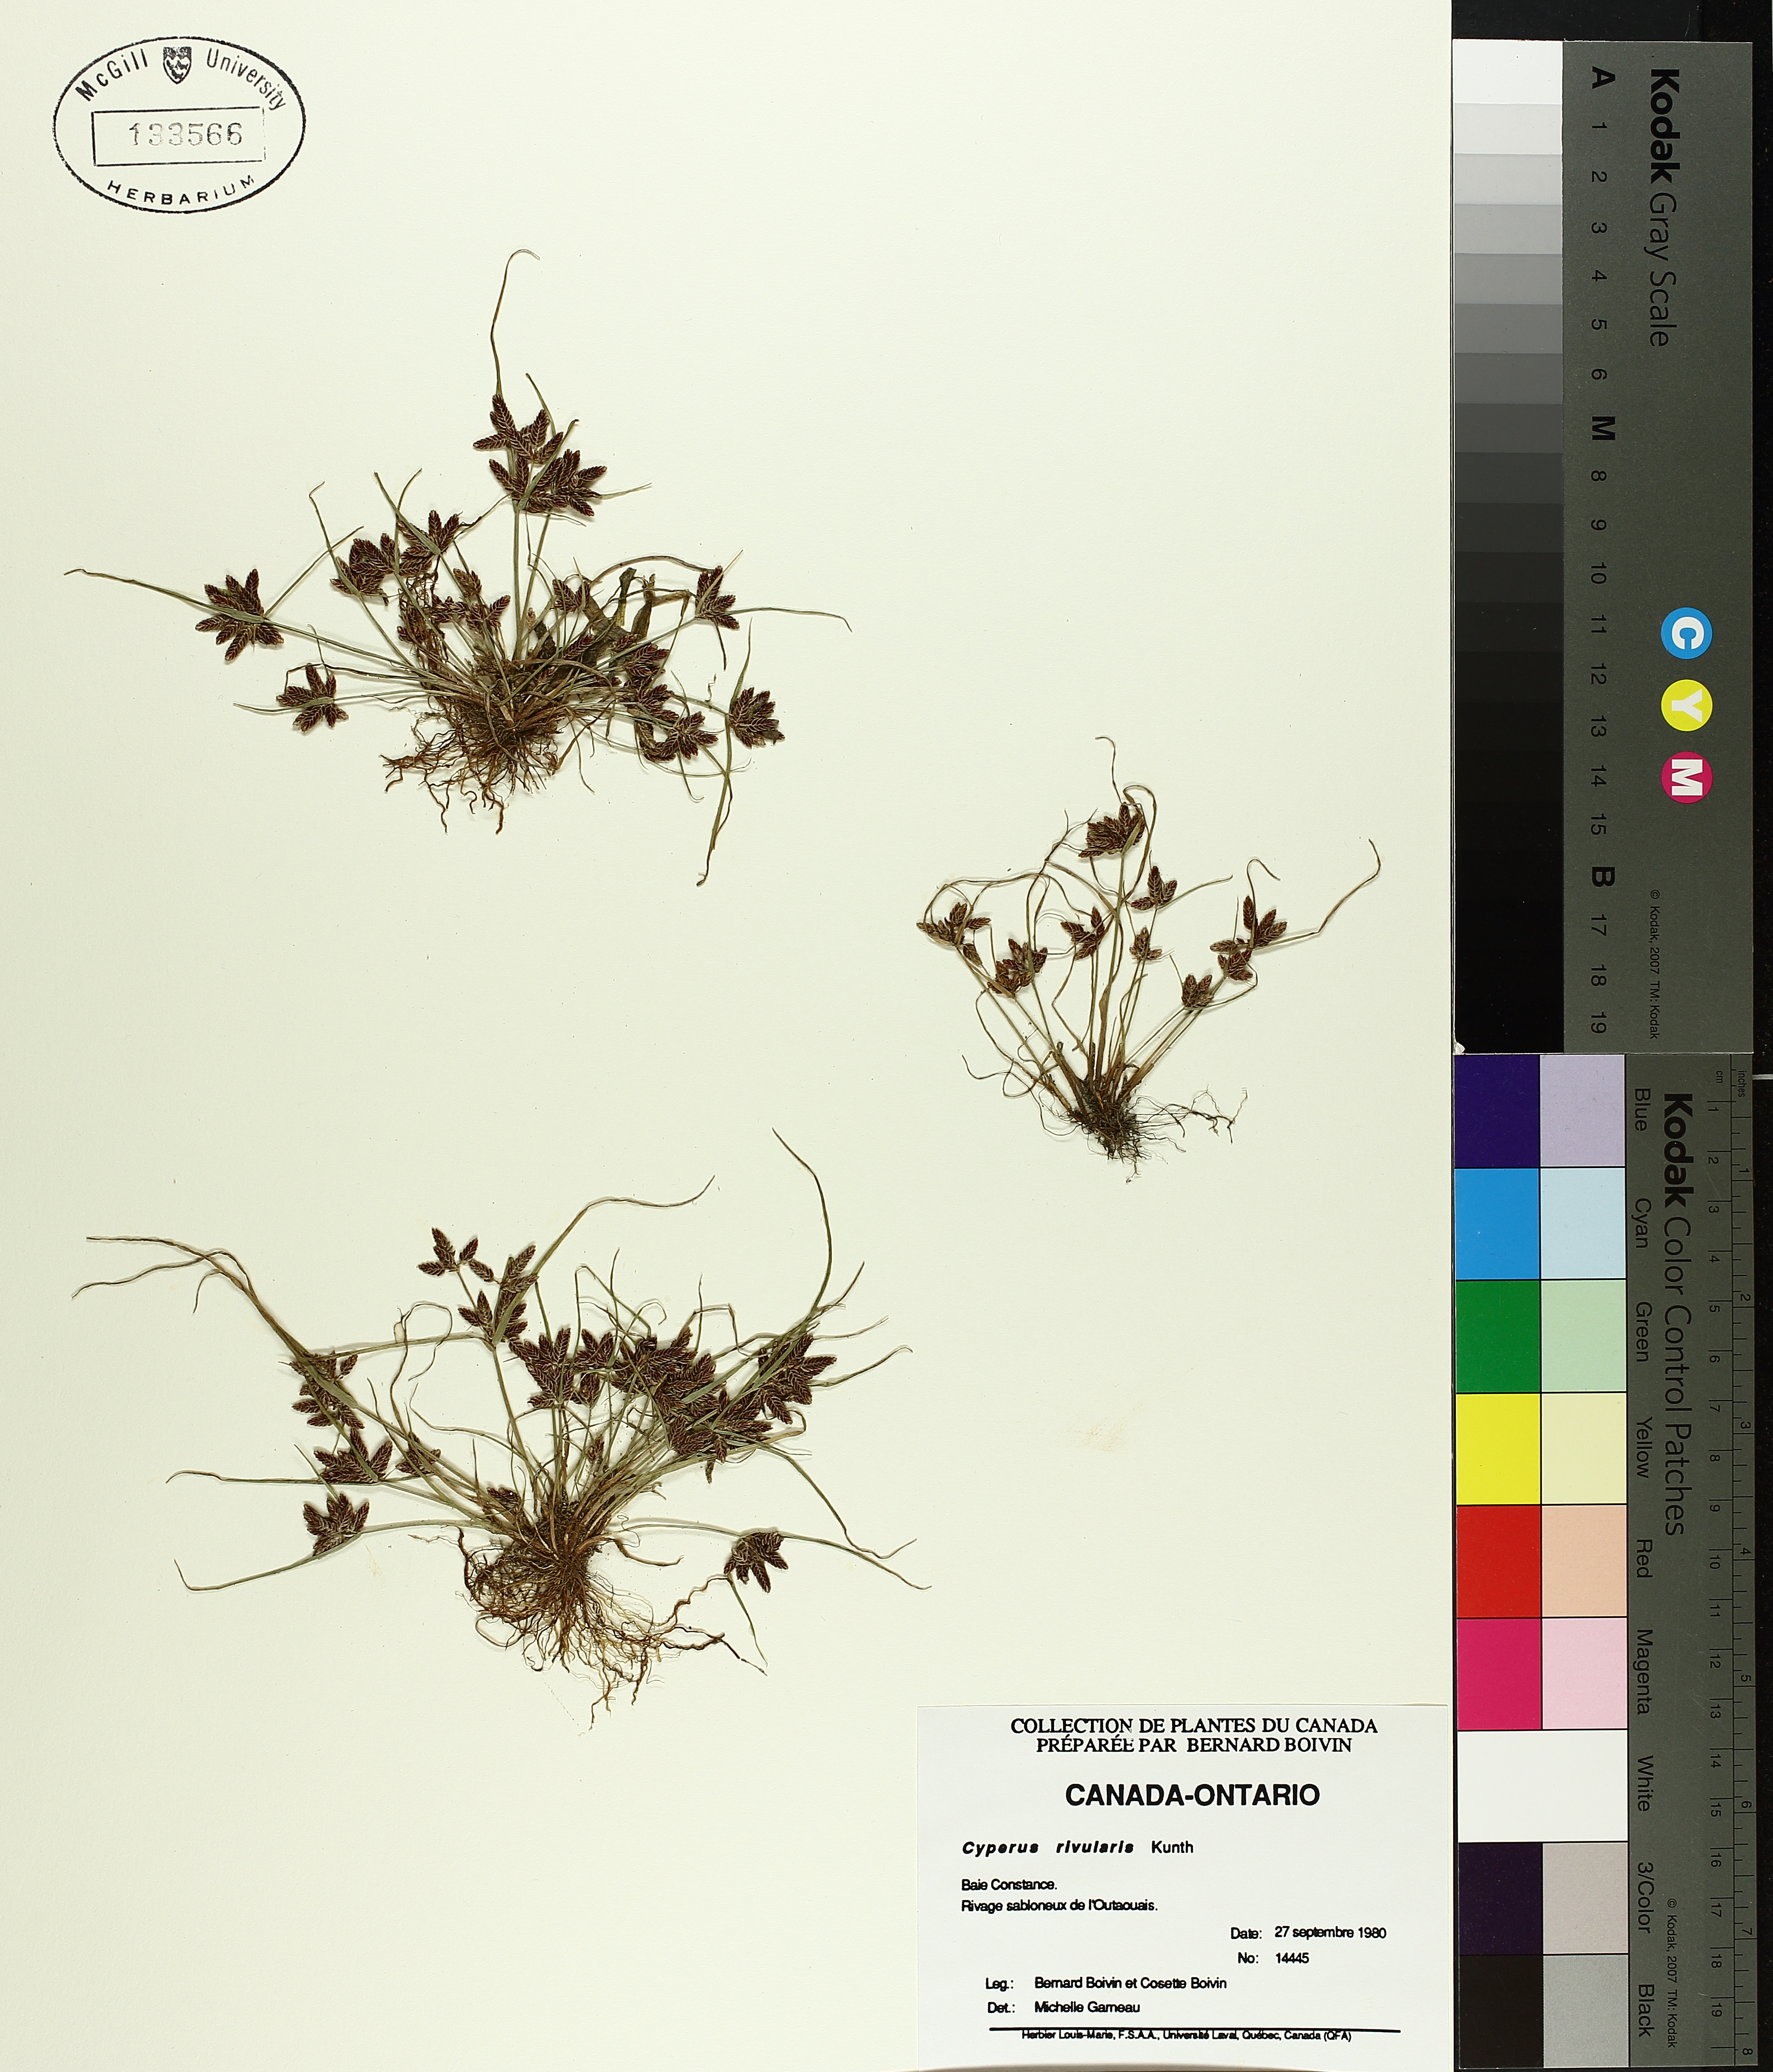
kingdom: Plantae
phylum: Tracheophyta
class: Liliopsida
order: Poales
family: Cyperaceae
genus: Cyperus
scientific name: Cyperus bipartitus
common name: Brook flatsedge
